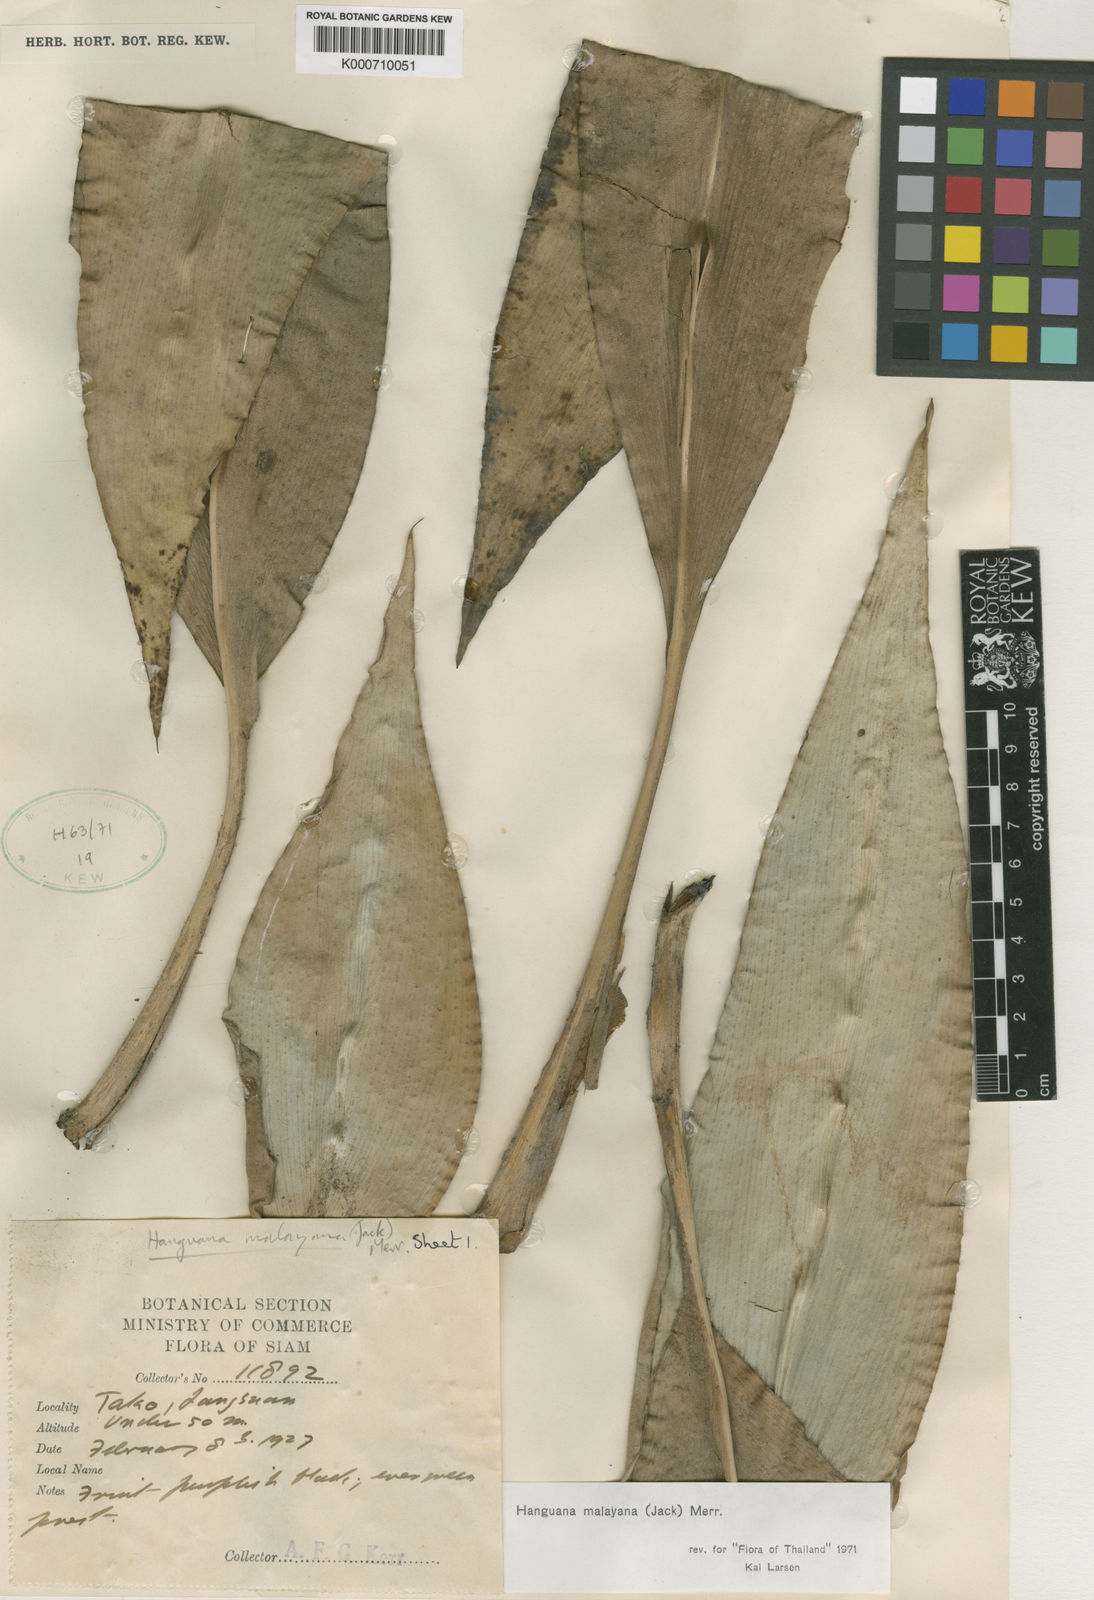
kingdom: Plantae
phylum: Tracheophyta
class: Liliopsida
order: Commelinales
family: Hanguanaceae
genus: Hanguana
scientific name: Hanguana malayana
